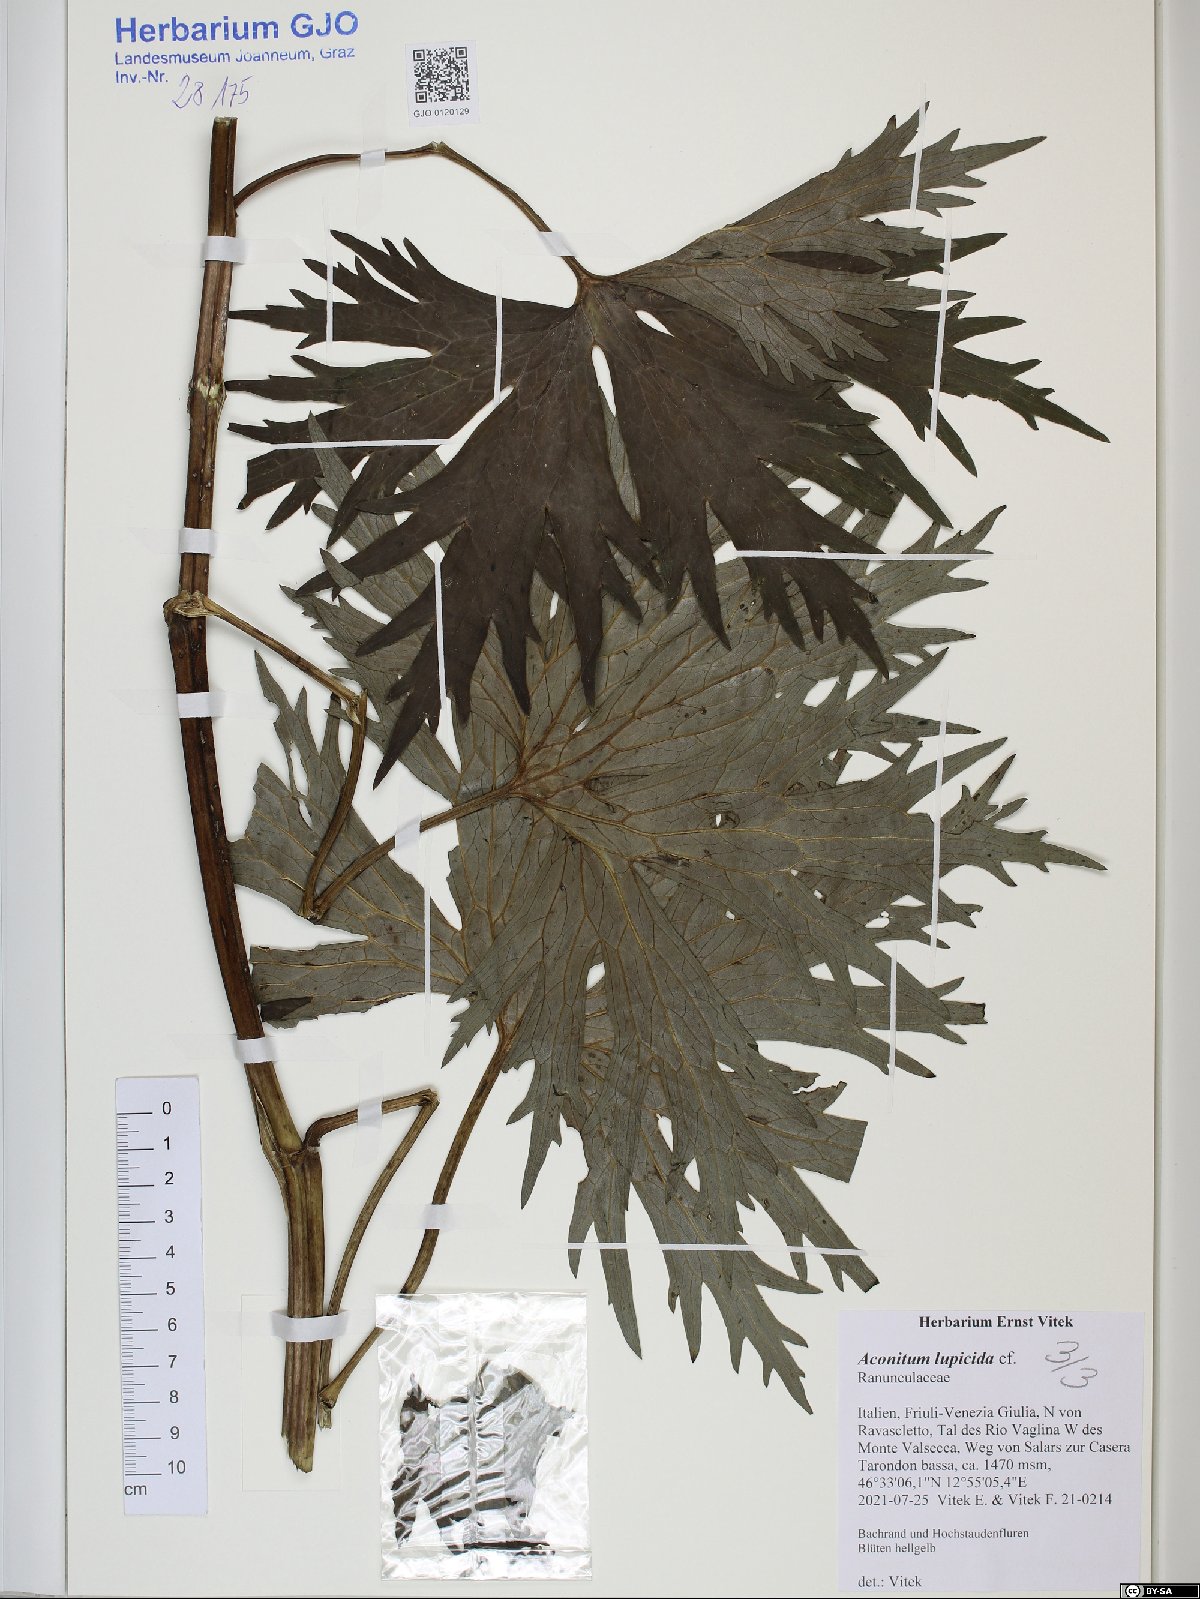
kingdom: Plantae
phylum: Tracheophyta
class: Magnoliopsida
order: Ranunculales
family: Ranunculaceae
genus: Aconitum
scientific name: Aconitum lycoctonum
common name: Wolf's-bane
